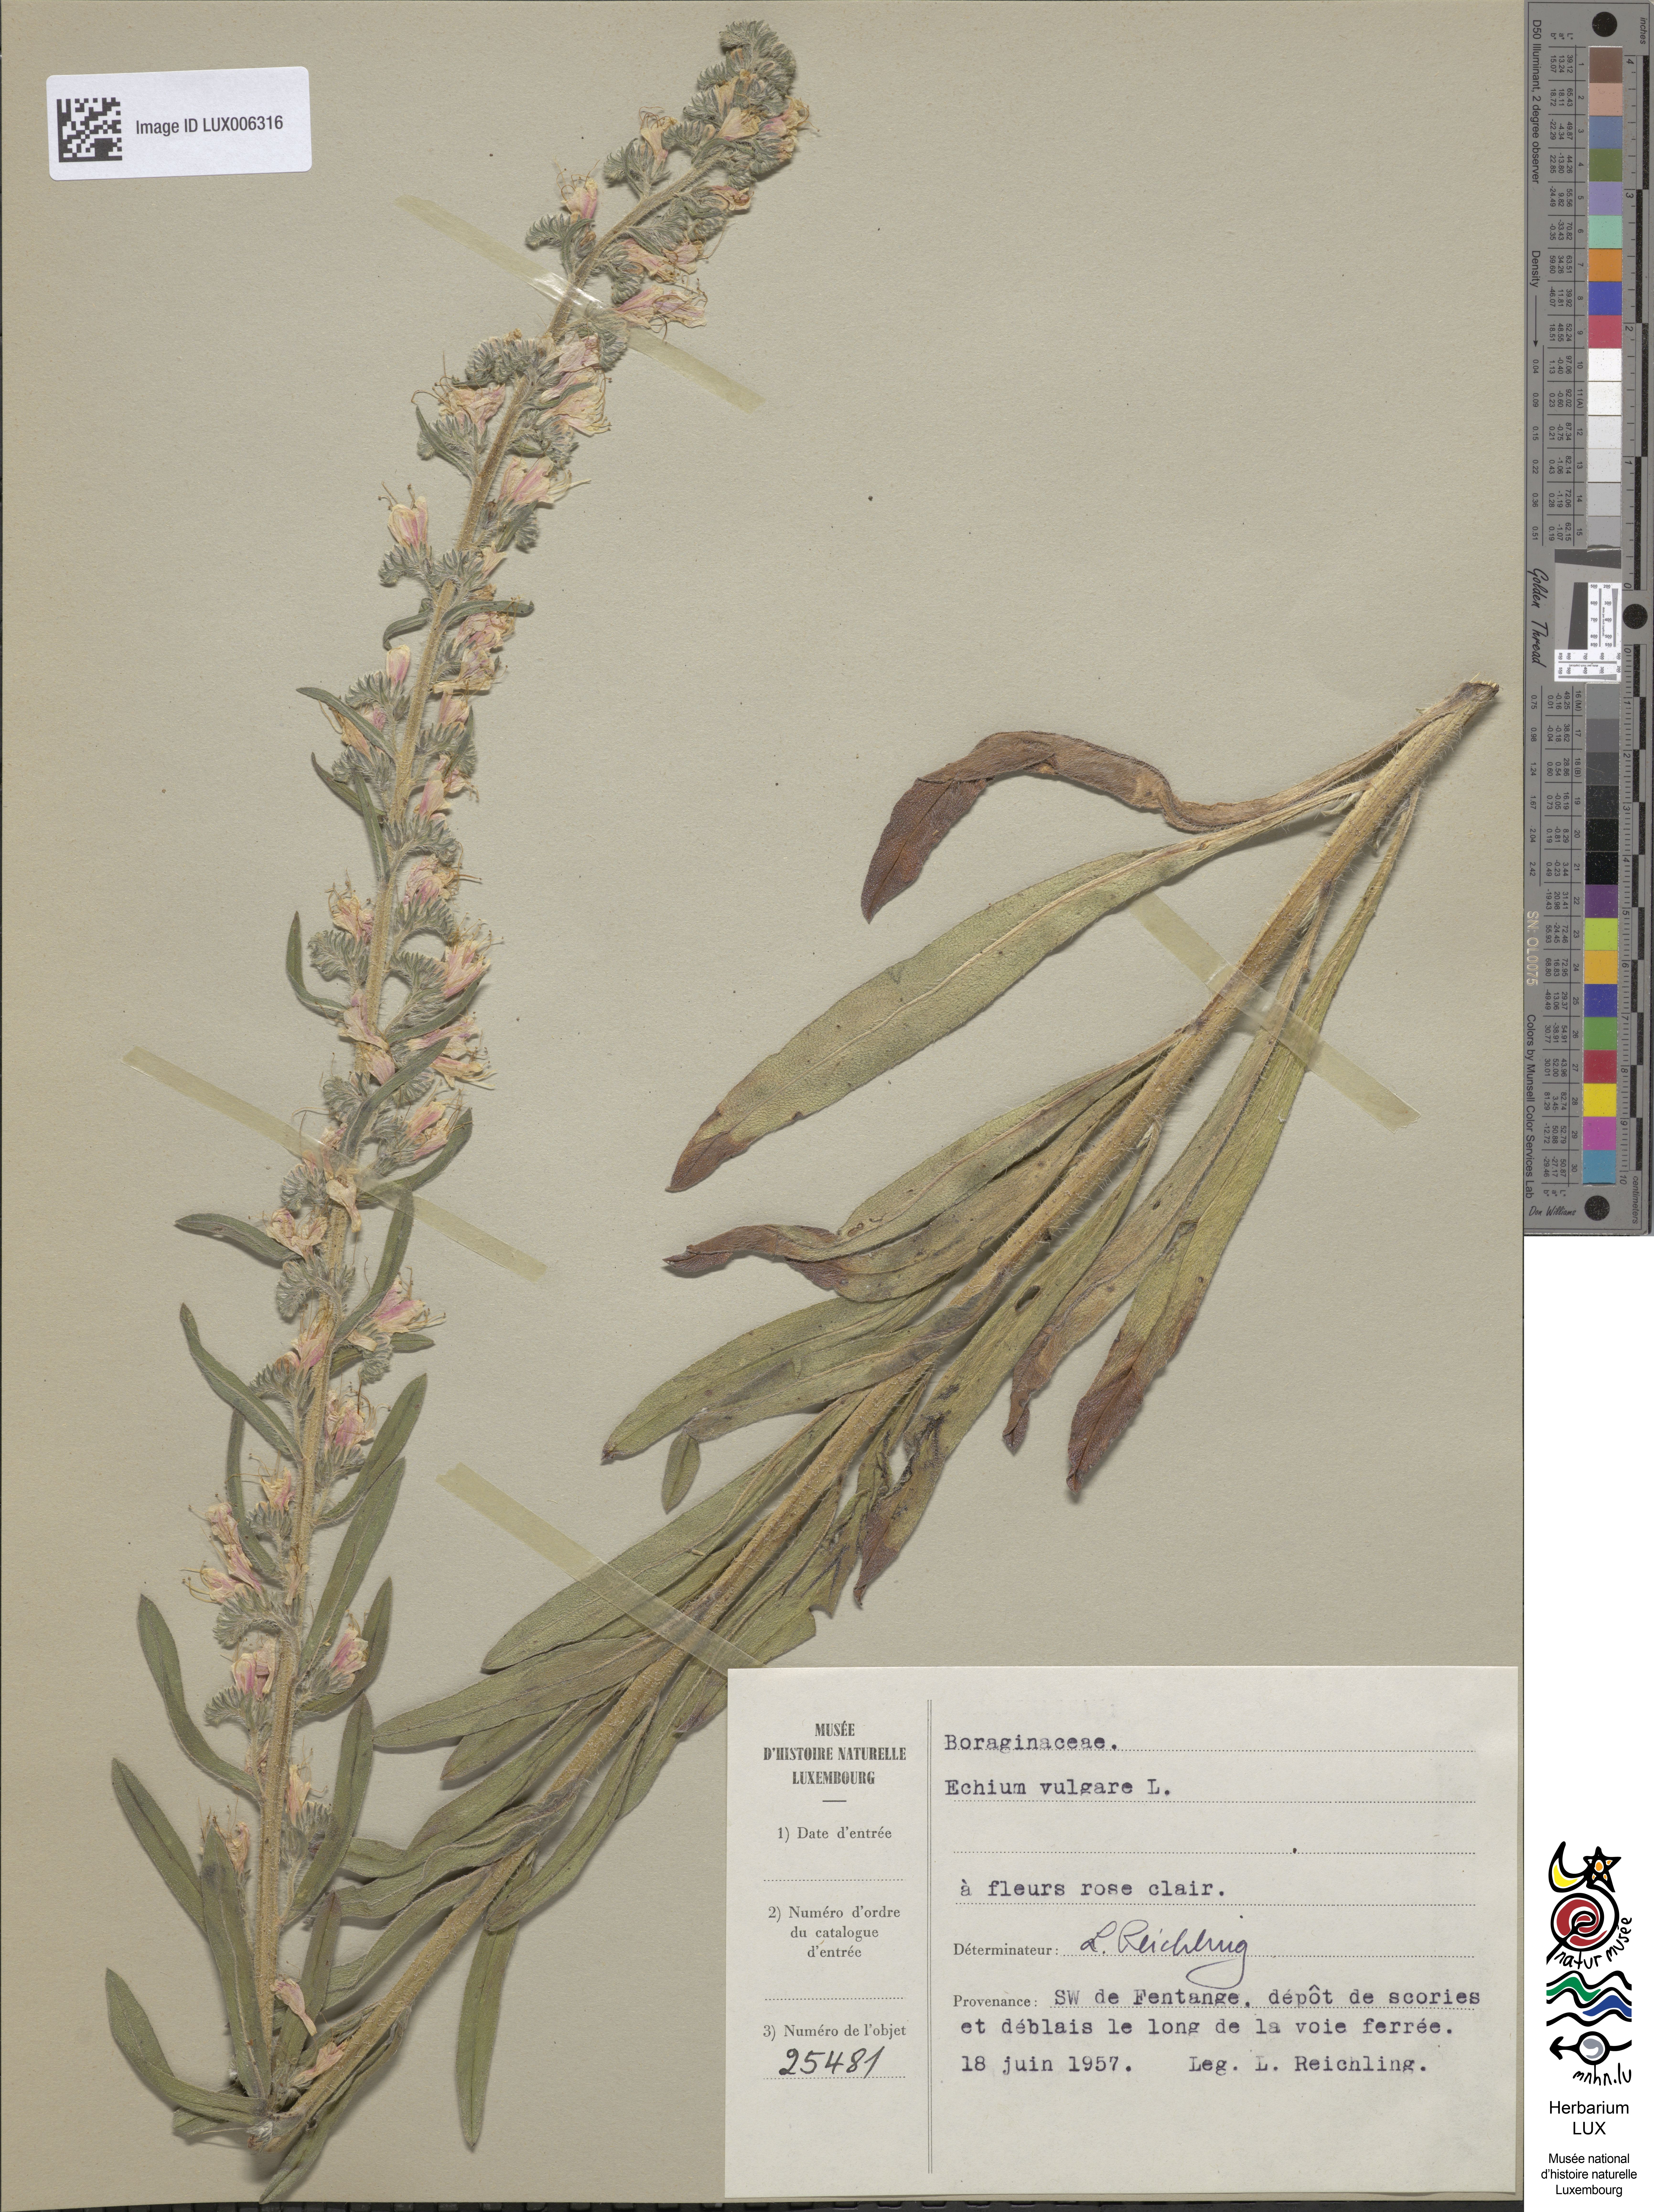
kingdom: Plantae
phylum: Tracheophyta
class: Magnoliopsida
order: Boraginales
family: Boraginaceae
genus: Echium
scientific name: Echium vulgare
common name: Common viper's bugloss
